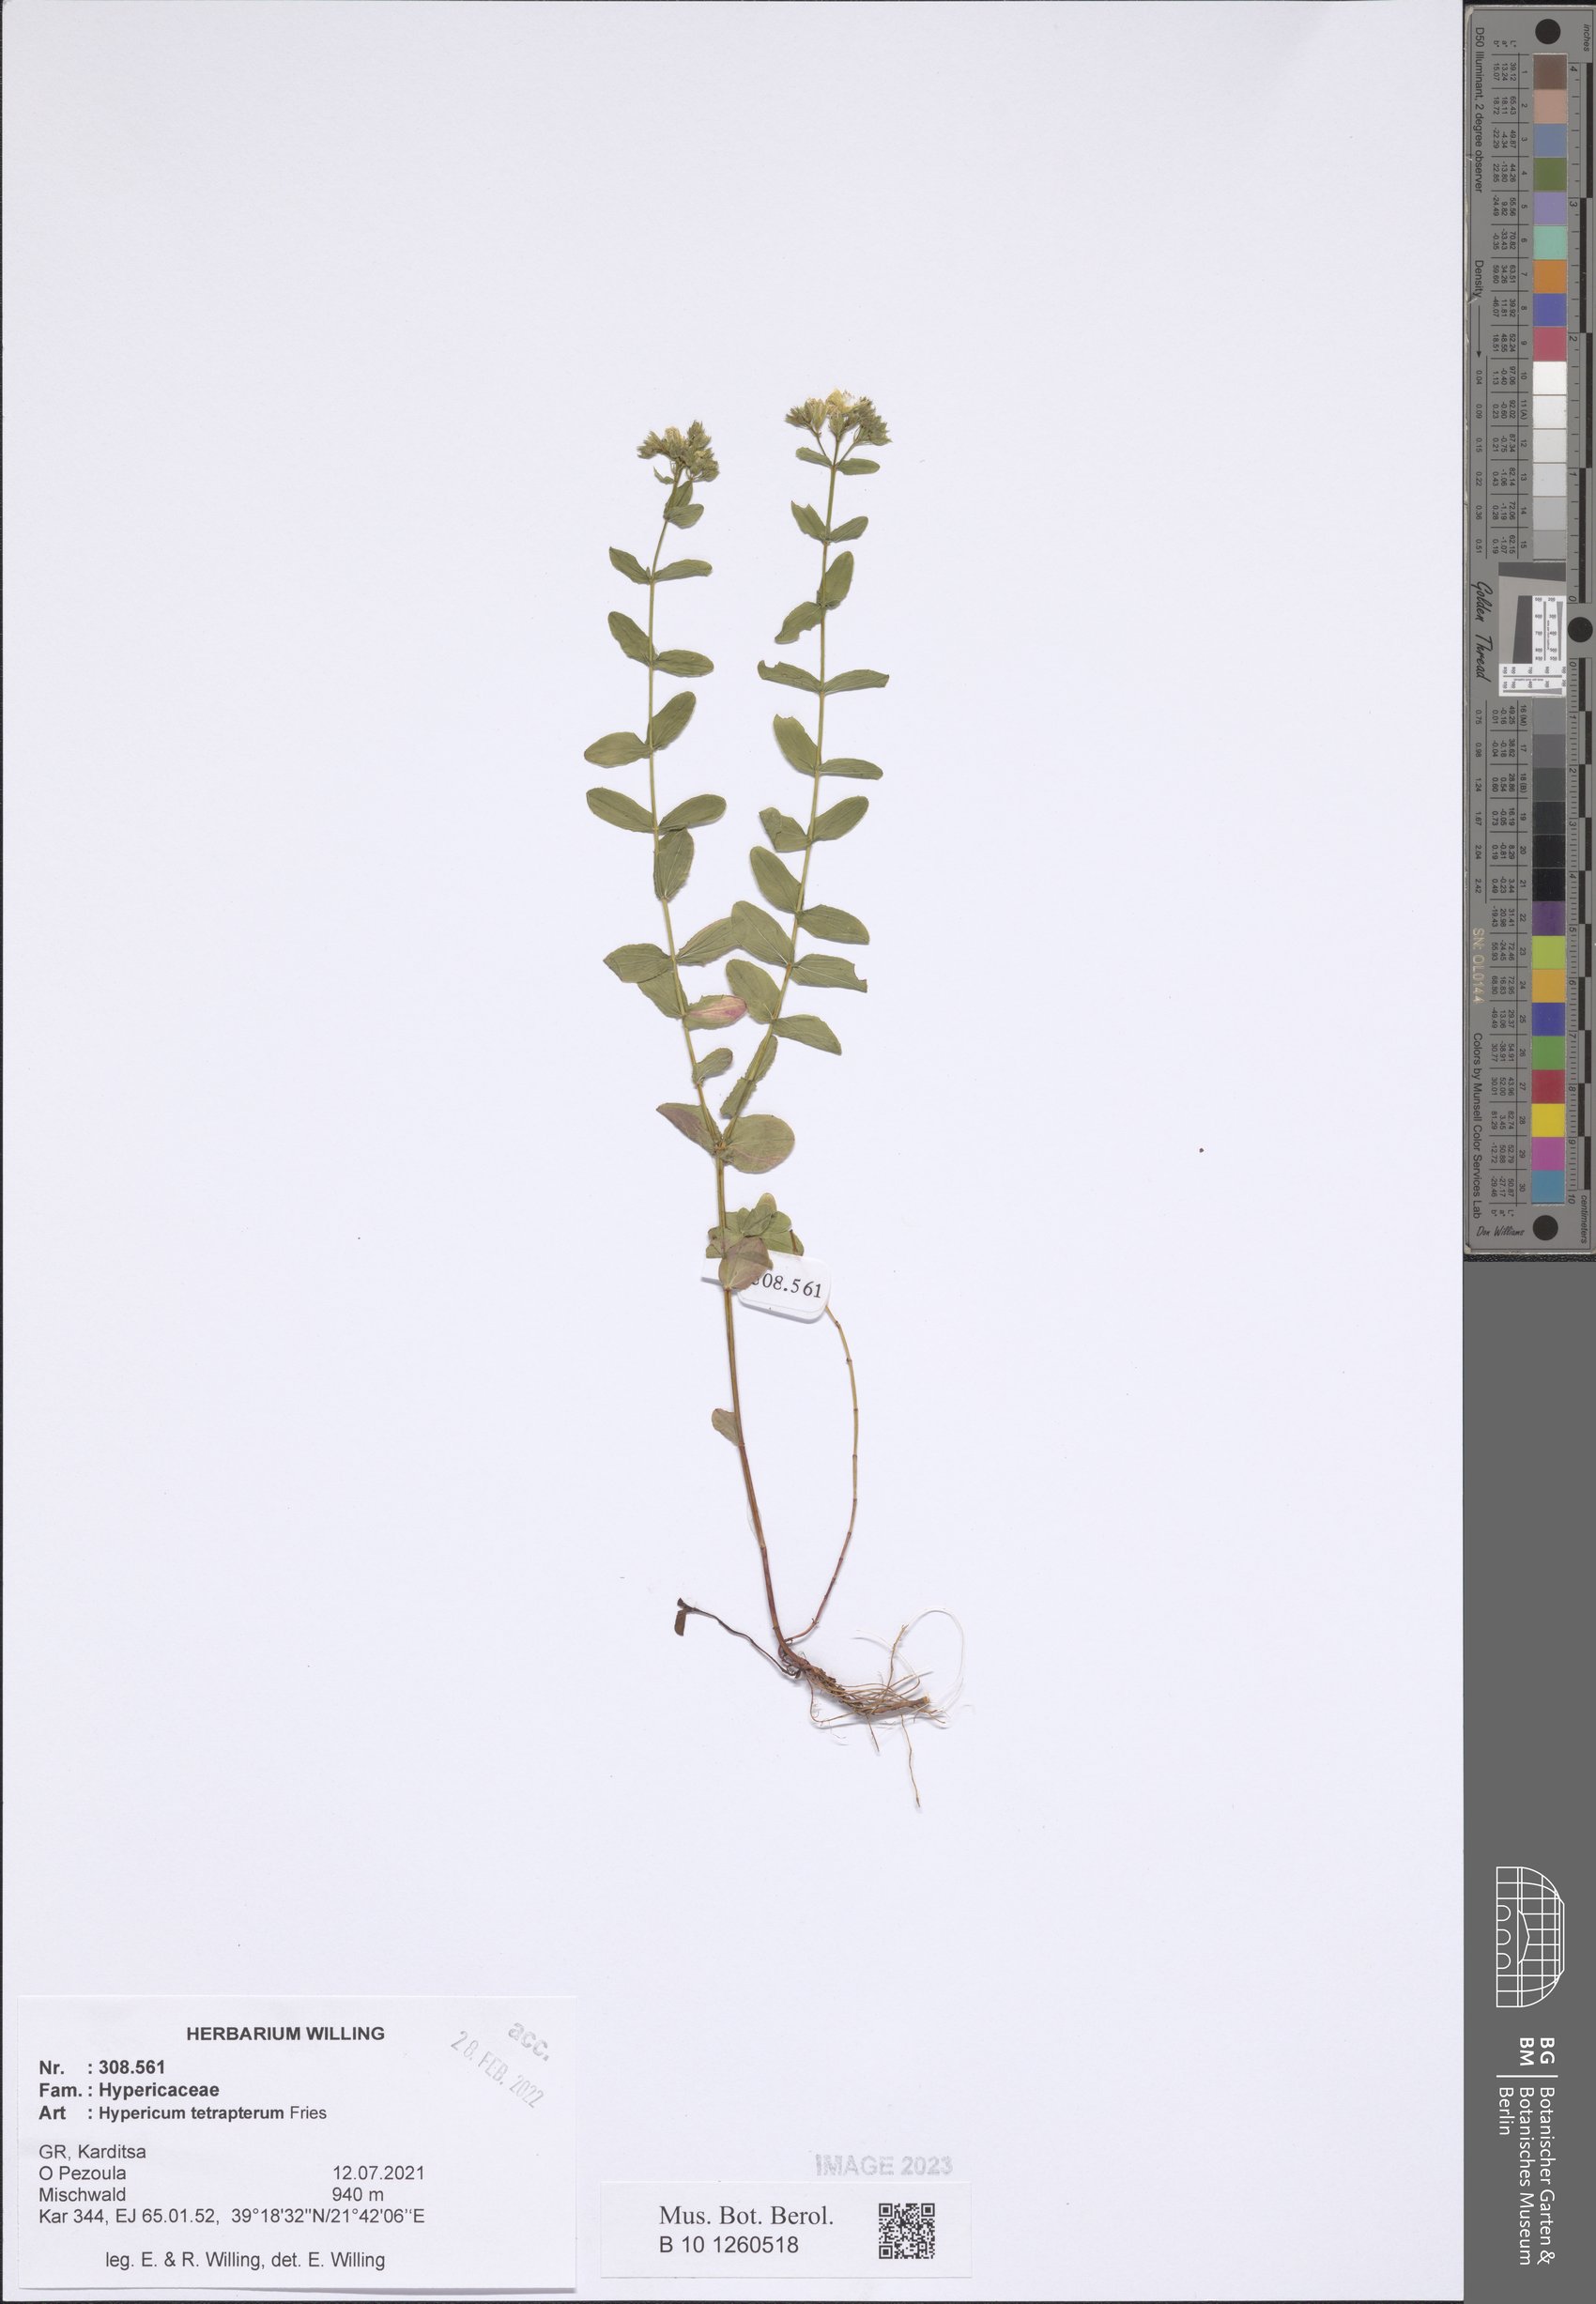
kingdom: Plantae
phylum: Tracheophyta
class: Magnoliopsida
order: Malpighiales
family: Hypericaceae
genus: Hypericum
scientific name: Hypericum tetrapterum
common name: Square-stalked st. john's-wort
